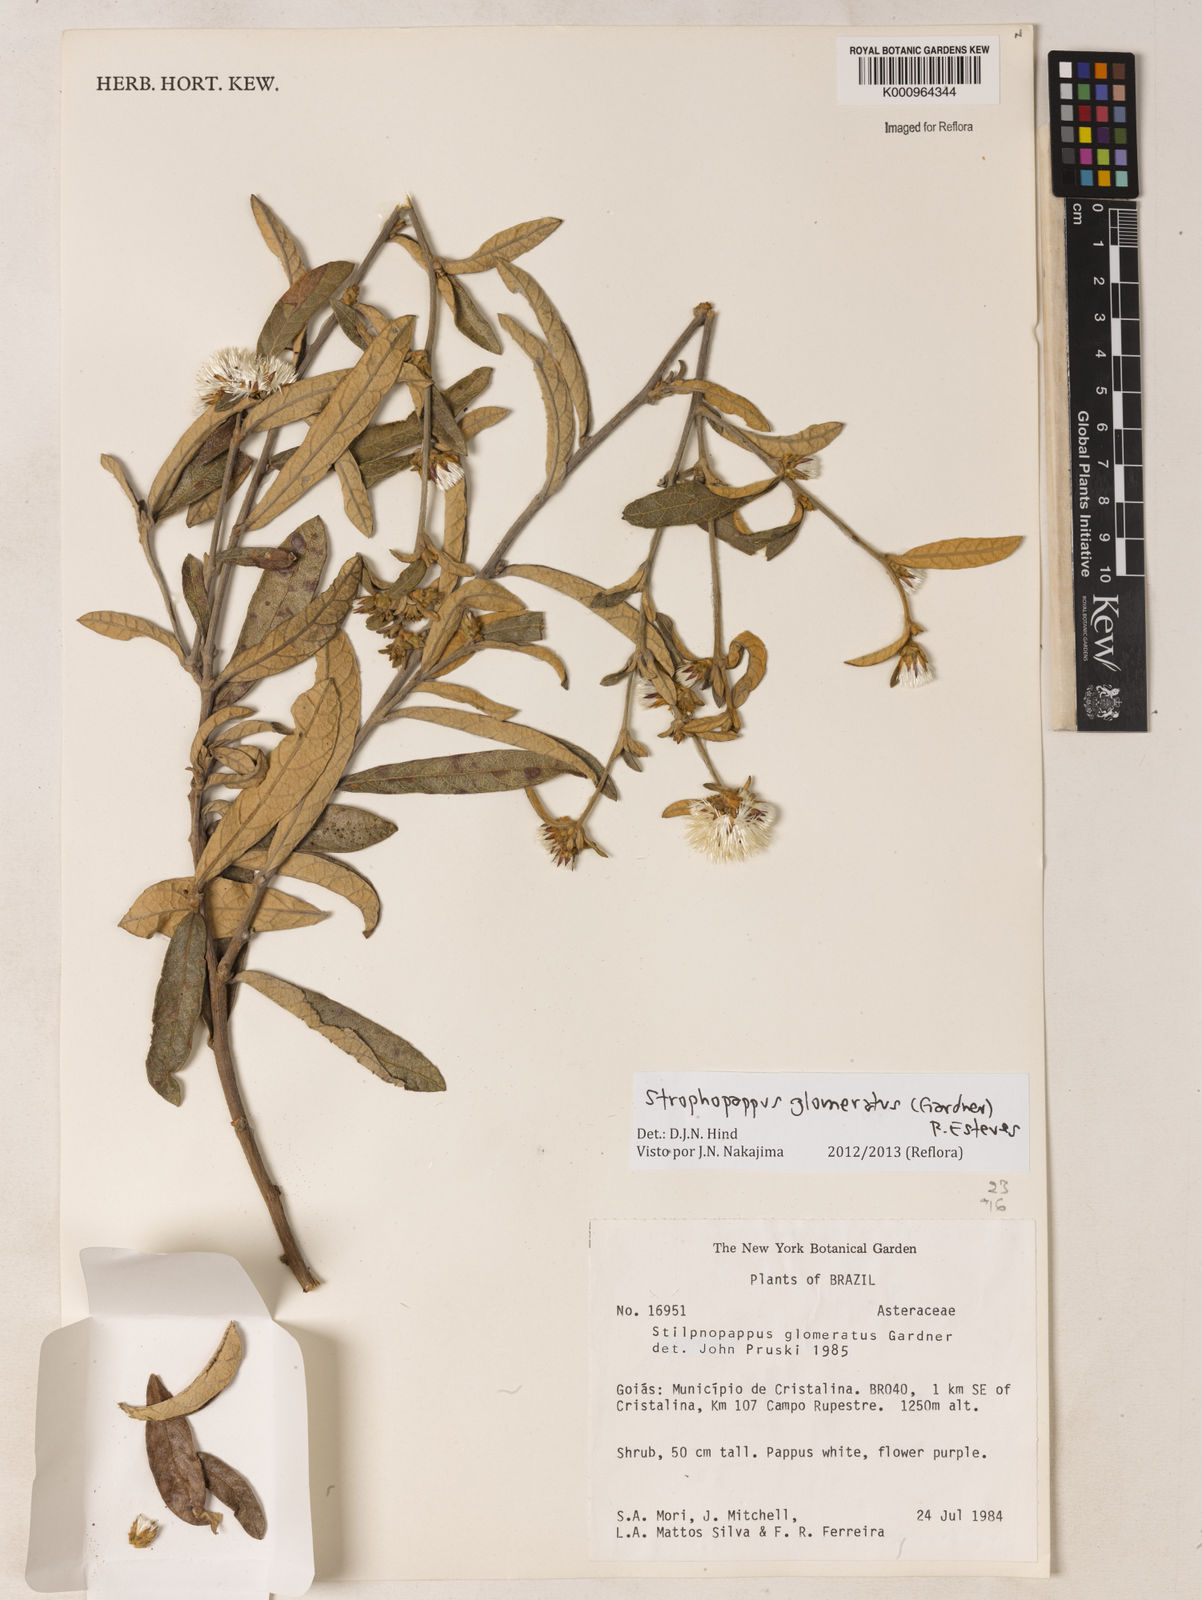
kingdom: Plantae
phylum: Tracheophyta
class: Magnoliopsida
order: Asterales
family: Asteraceae
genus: Stilpnopappus
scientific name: Stilpnopappus glomeratus
